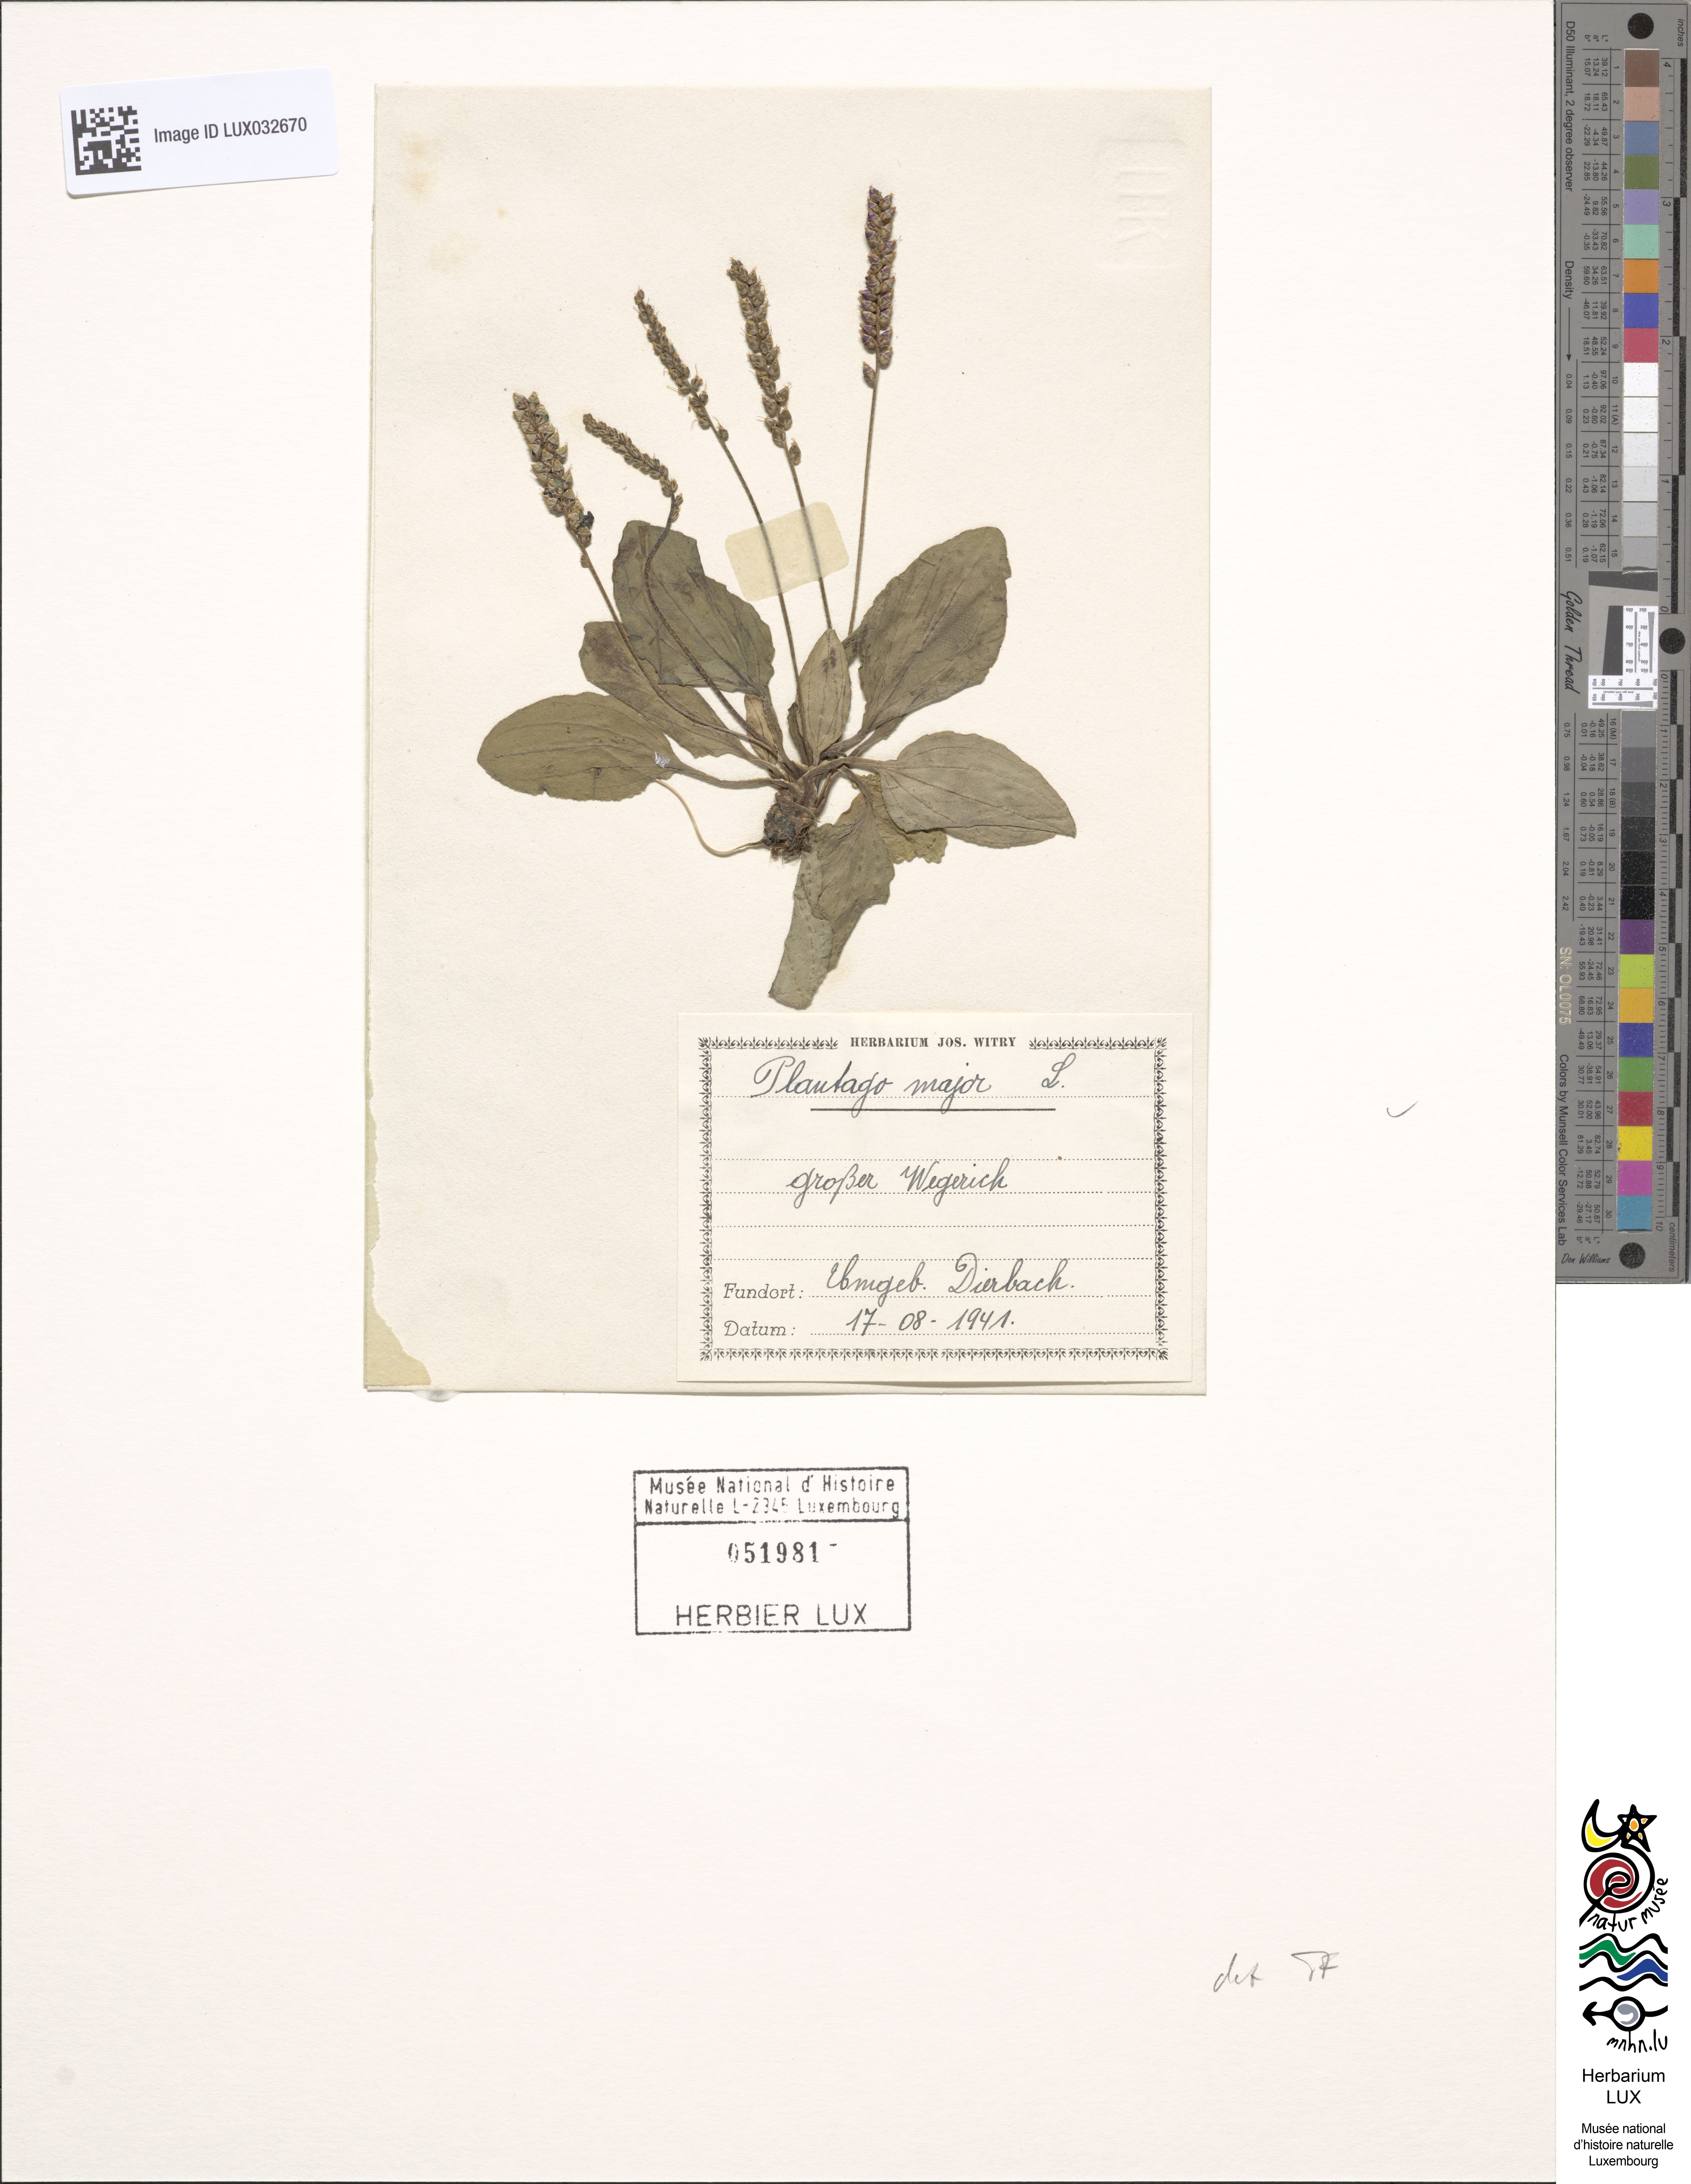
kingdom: Plantae
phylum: Tracheophyta
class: Magnoliopsida
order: Lamiales
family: Plantaginaceae
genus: Plantago
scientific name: Plantago major
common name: Common plantain
